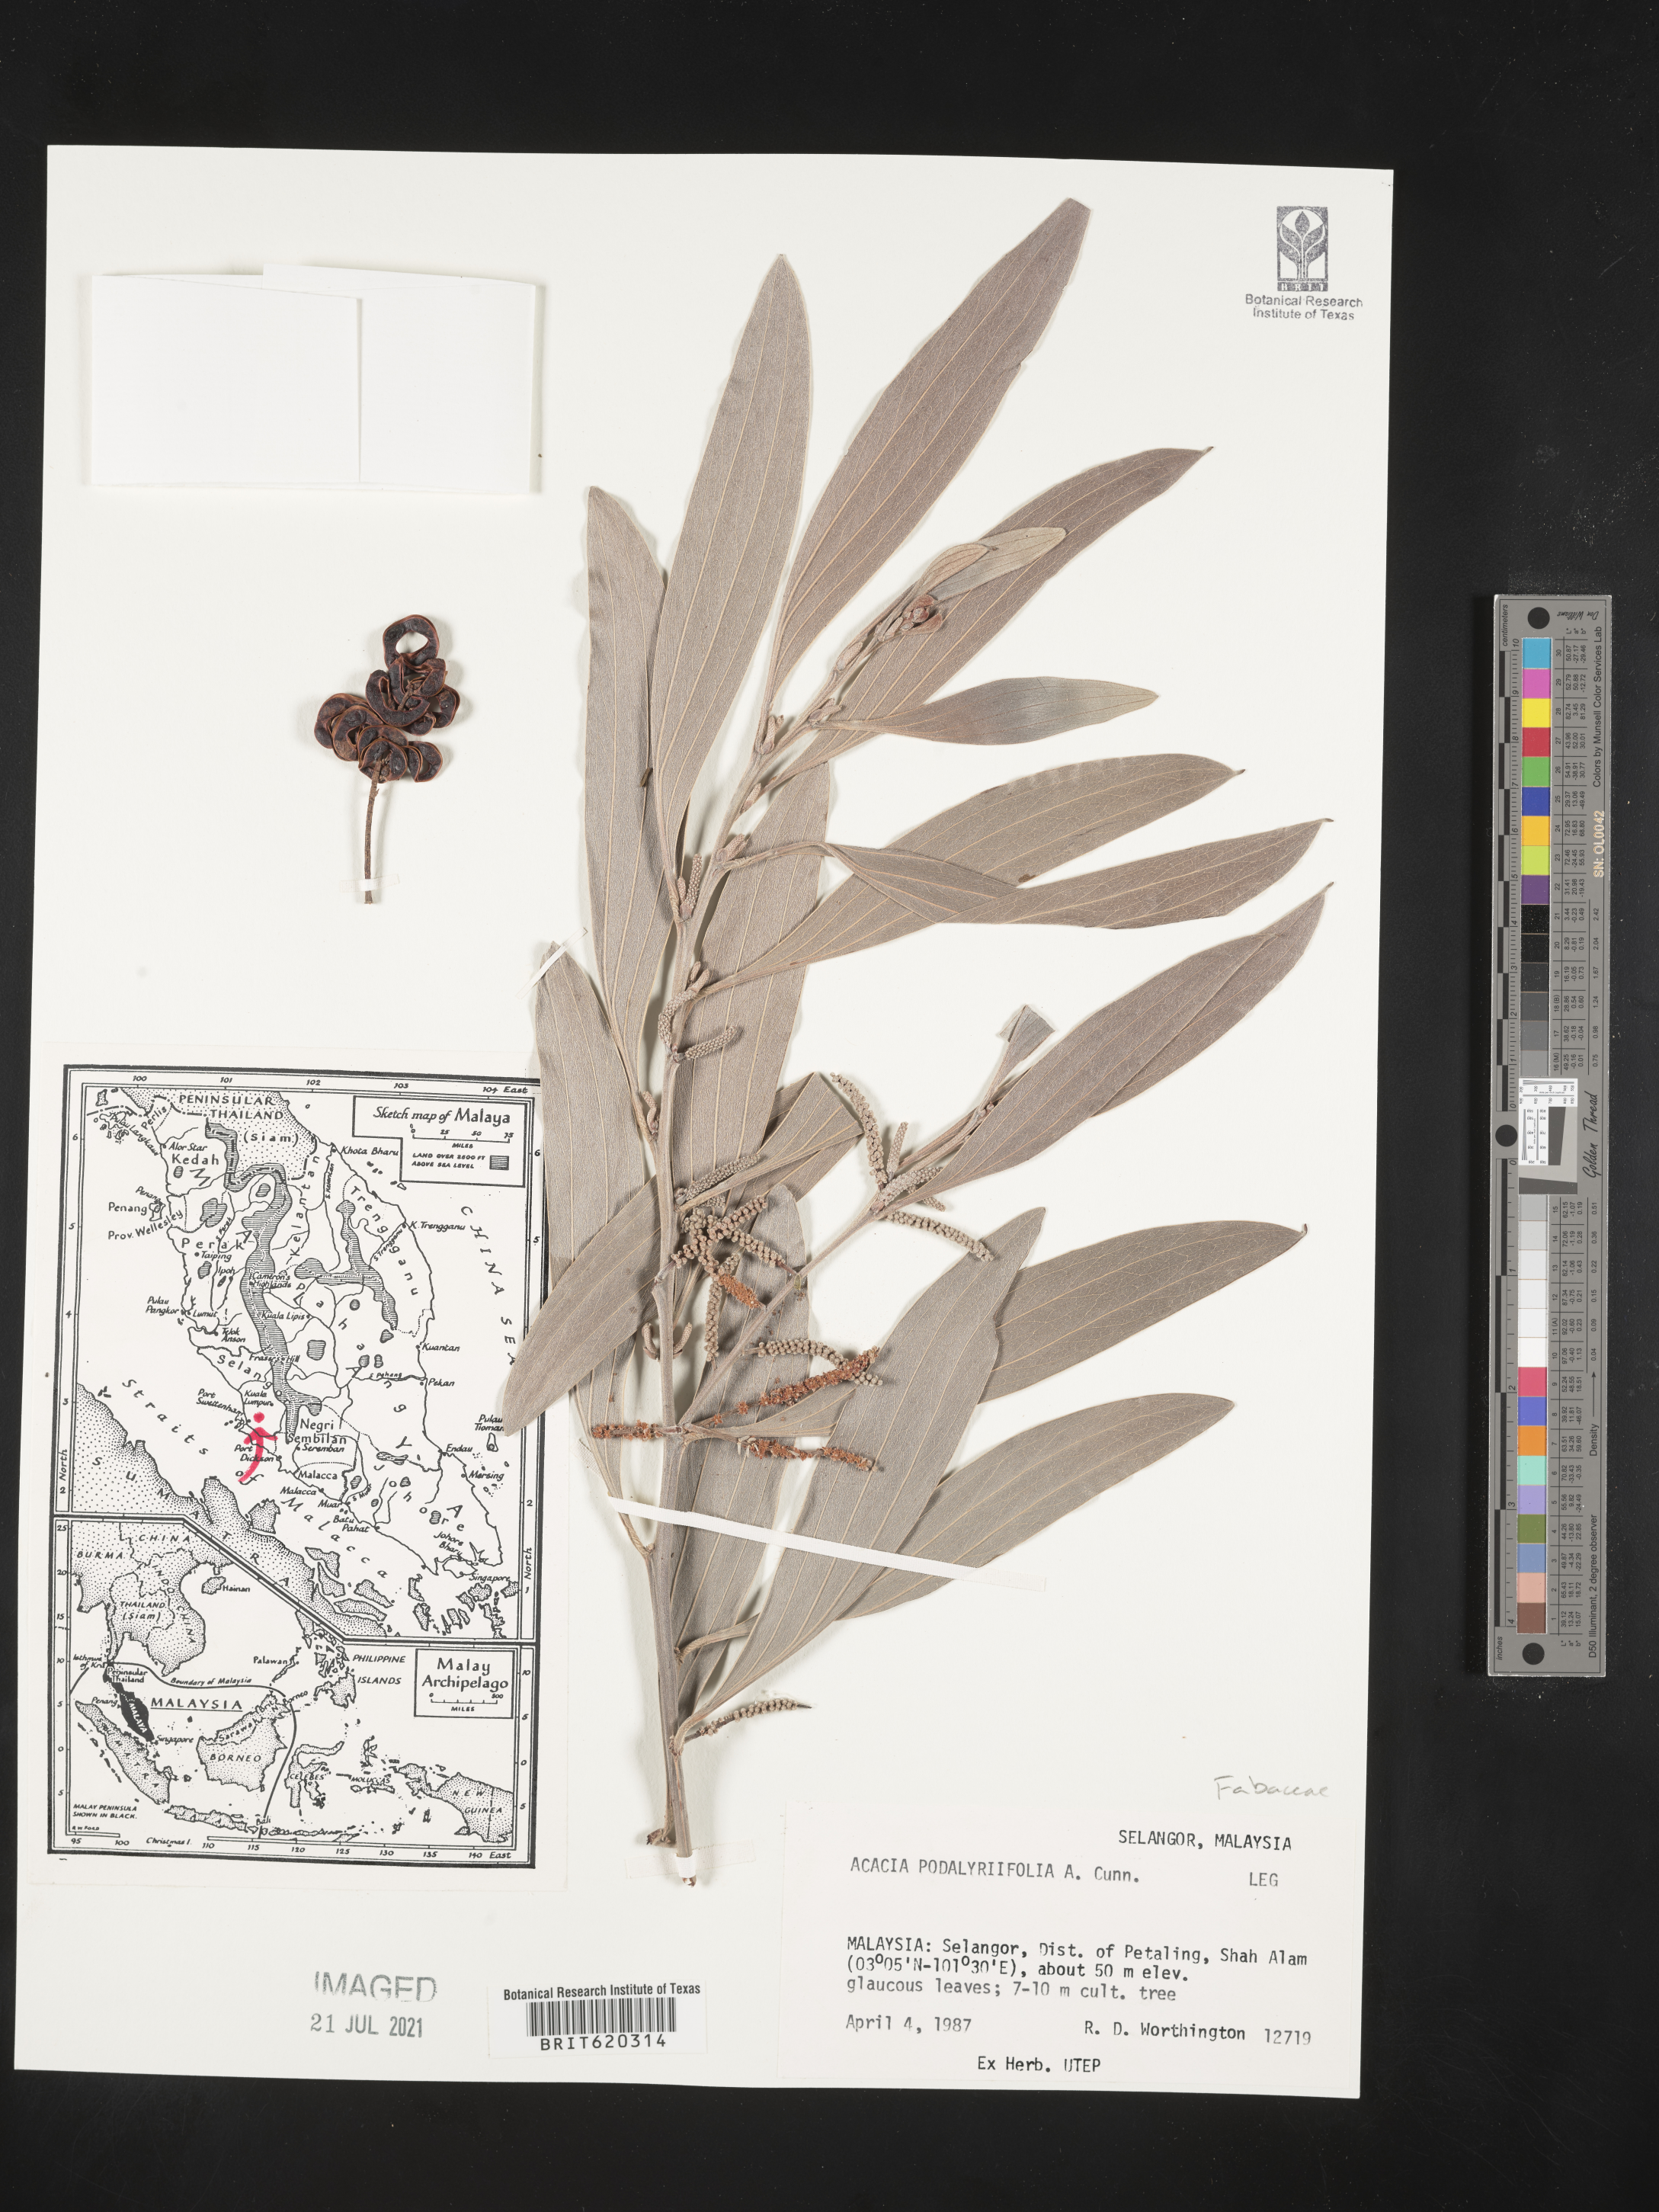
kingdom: Plantae
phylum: Tracheophyta
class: Magnoliopsida
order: Fabales
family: Fabaceae
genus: Acacia
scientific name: Acacia podalyriifolia
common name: Pearl wattle
